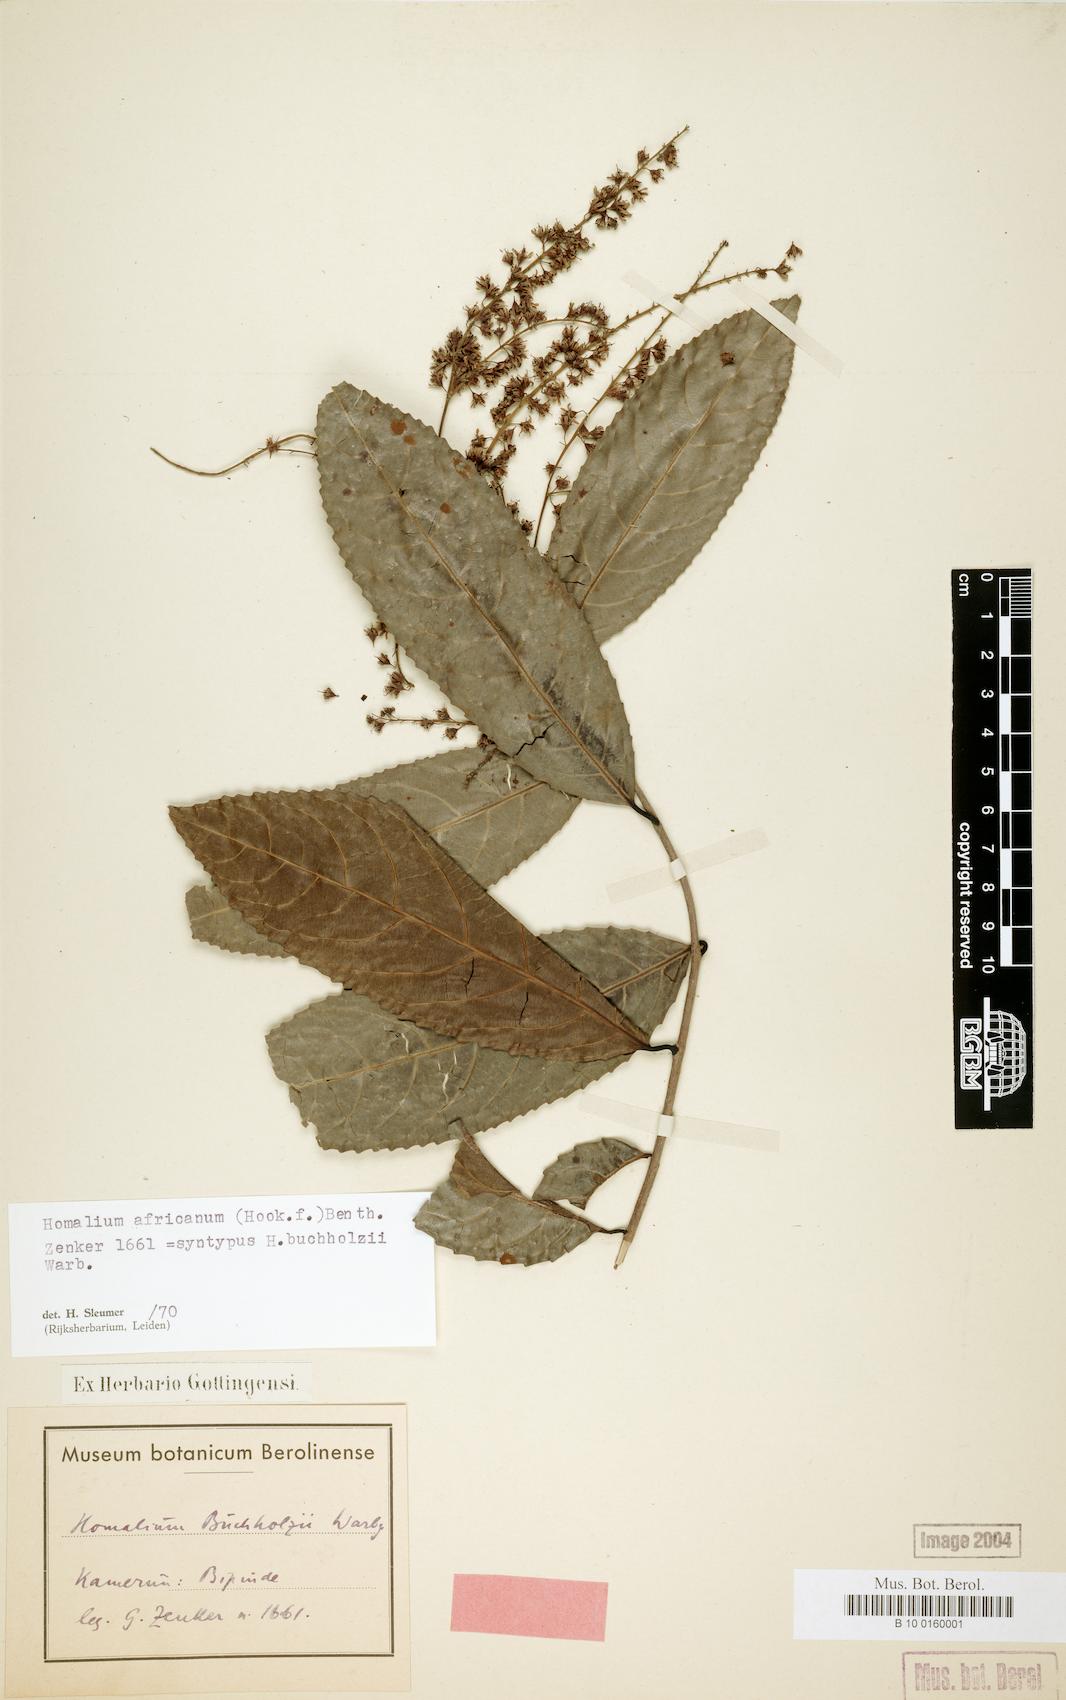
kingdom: Plantae
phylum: Tracheophyta
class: Magnoliopsida
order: Malpighiales
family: Salicaceae
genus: Homalium
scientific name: Homalium africanum
